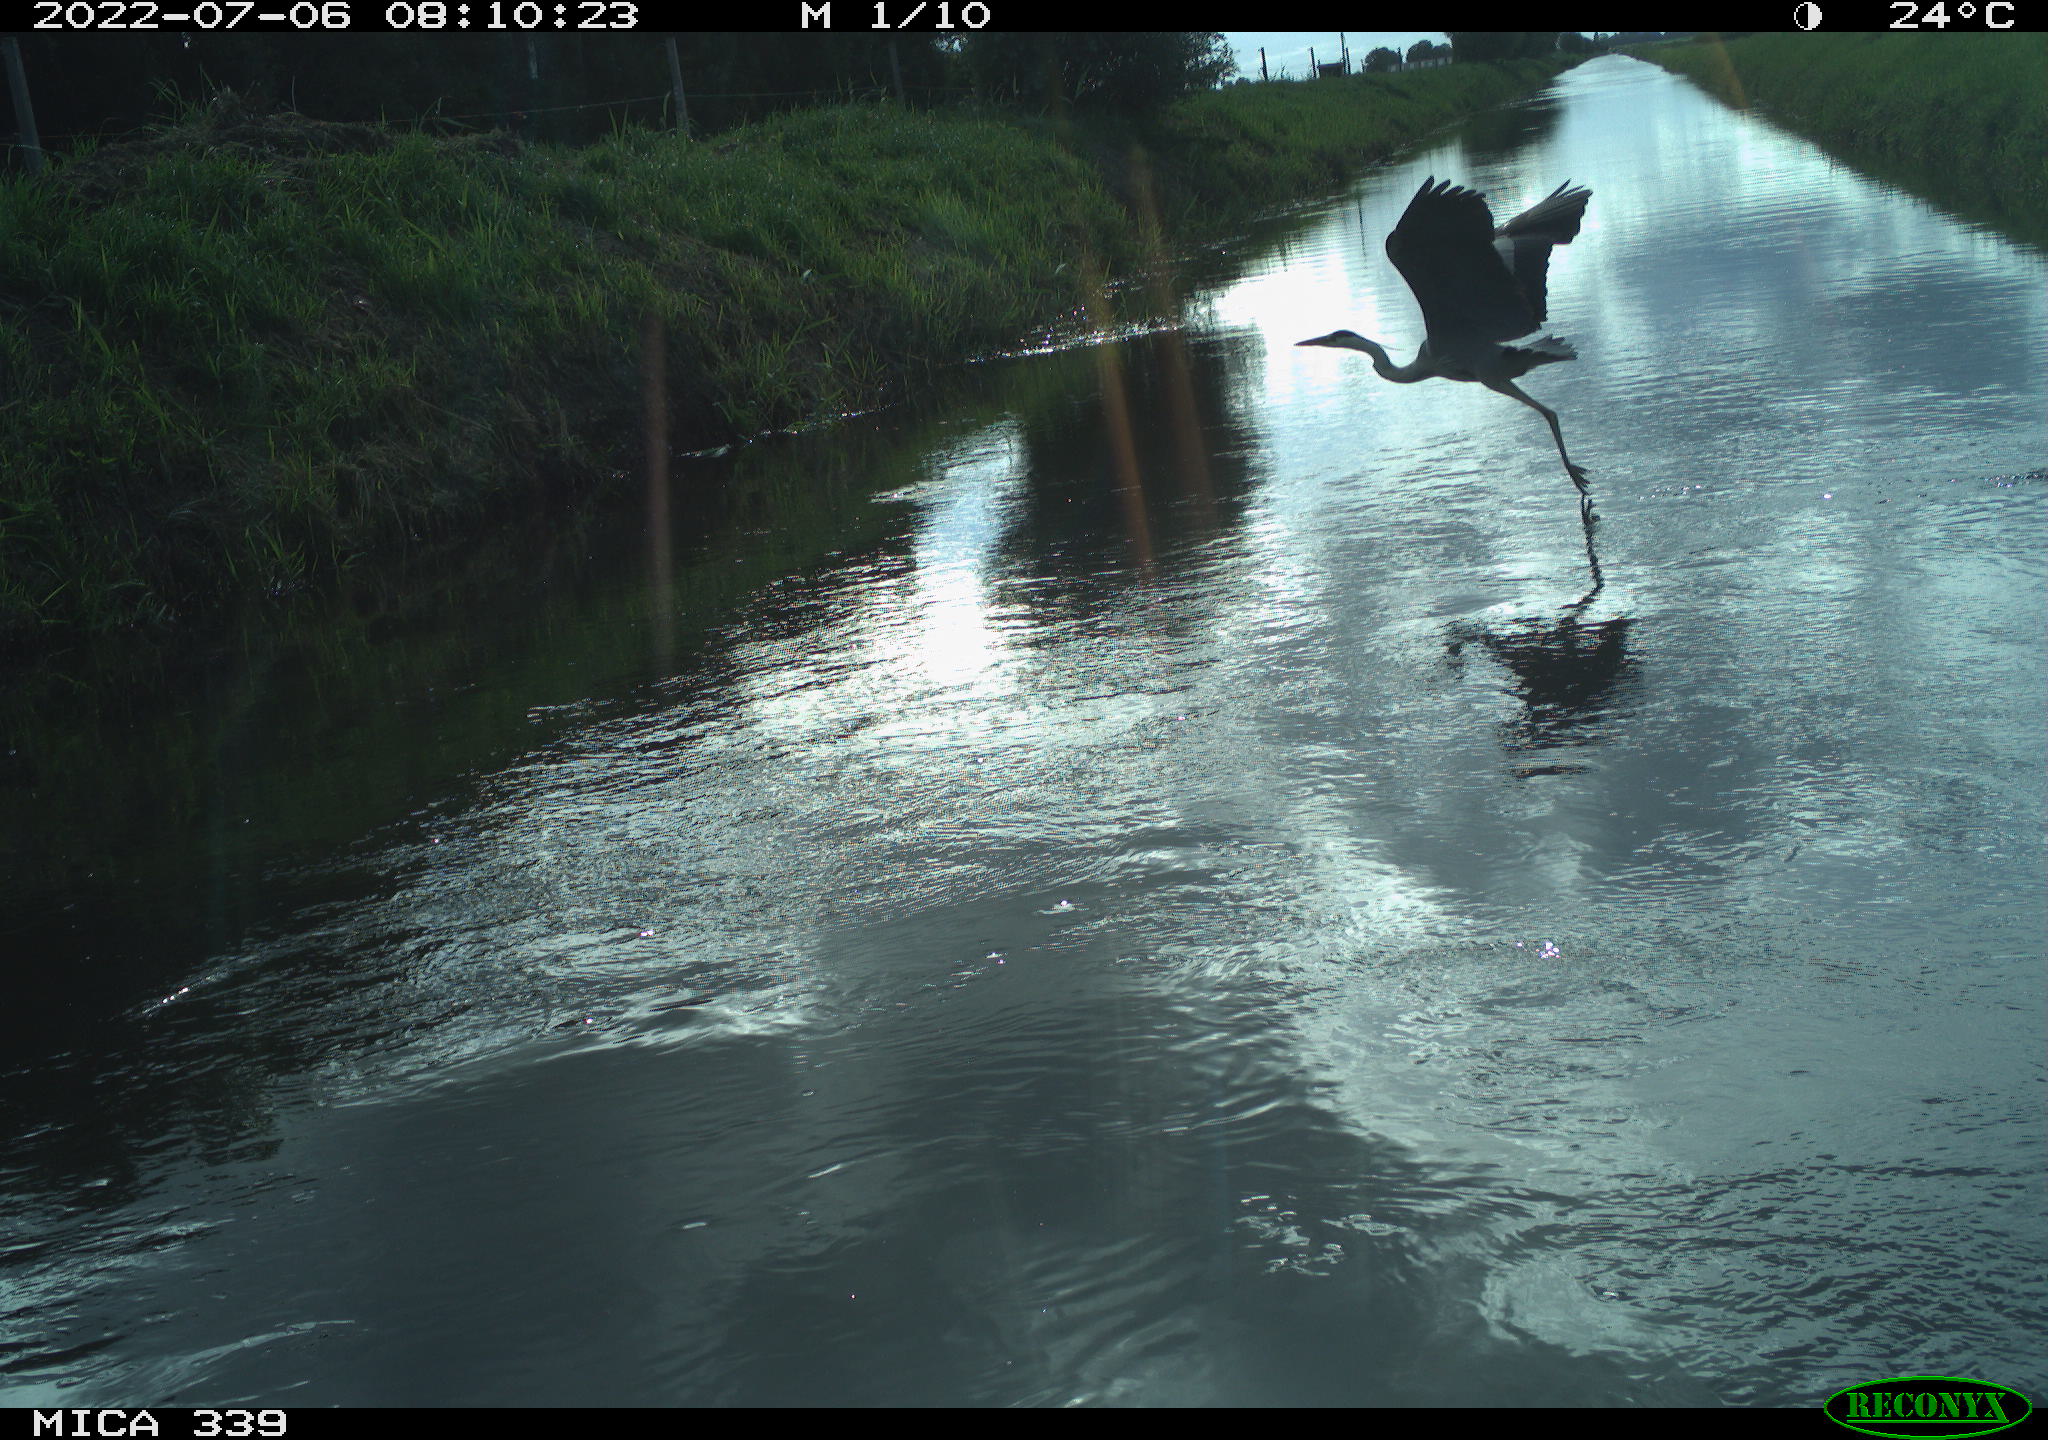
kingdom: Animalia
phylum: Chordata
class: Aves
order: Pelecaniformes
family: Ardeidae
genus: Ardea
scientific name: Ardea cinerea
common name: Grey heron
